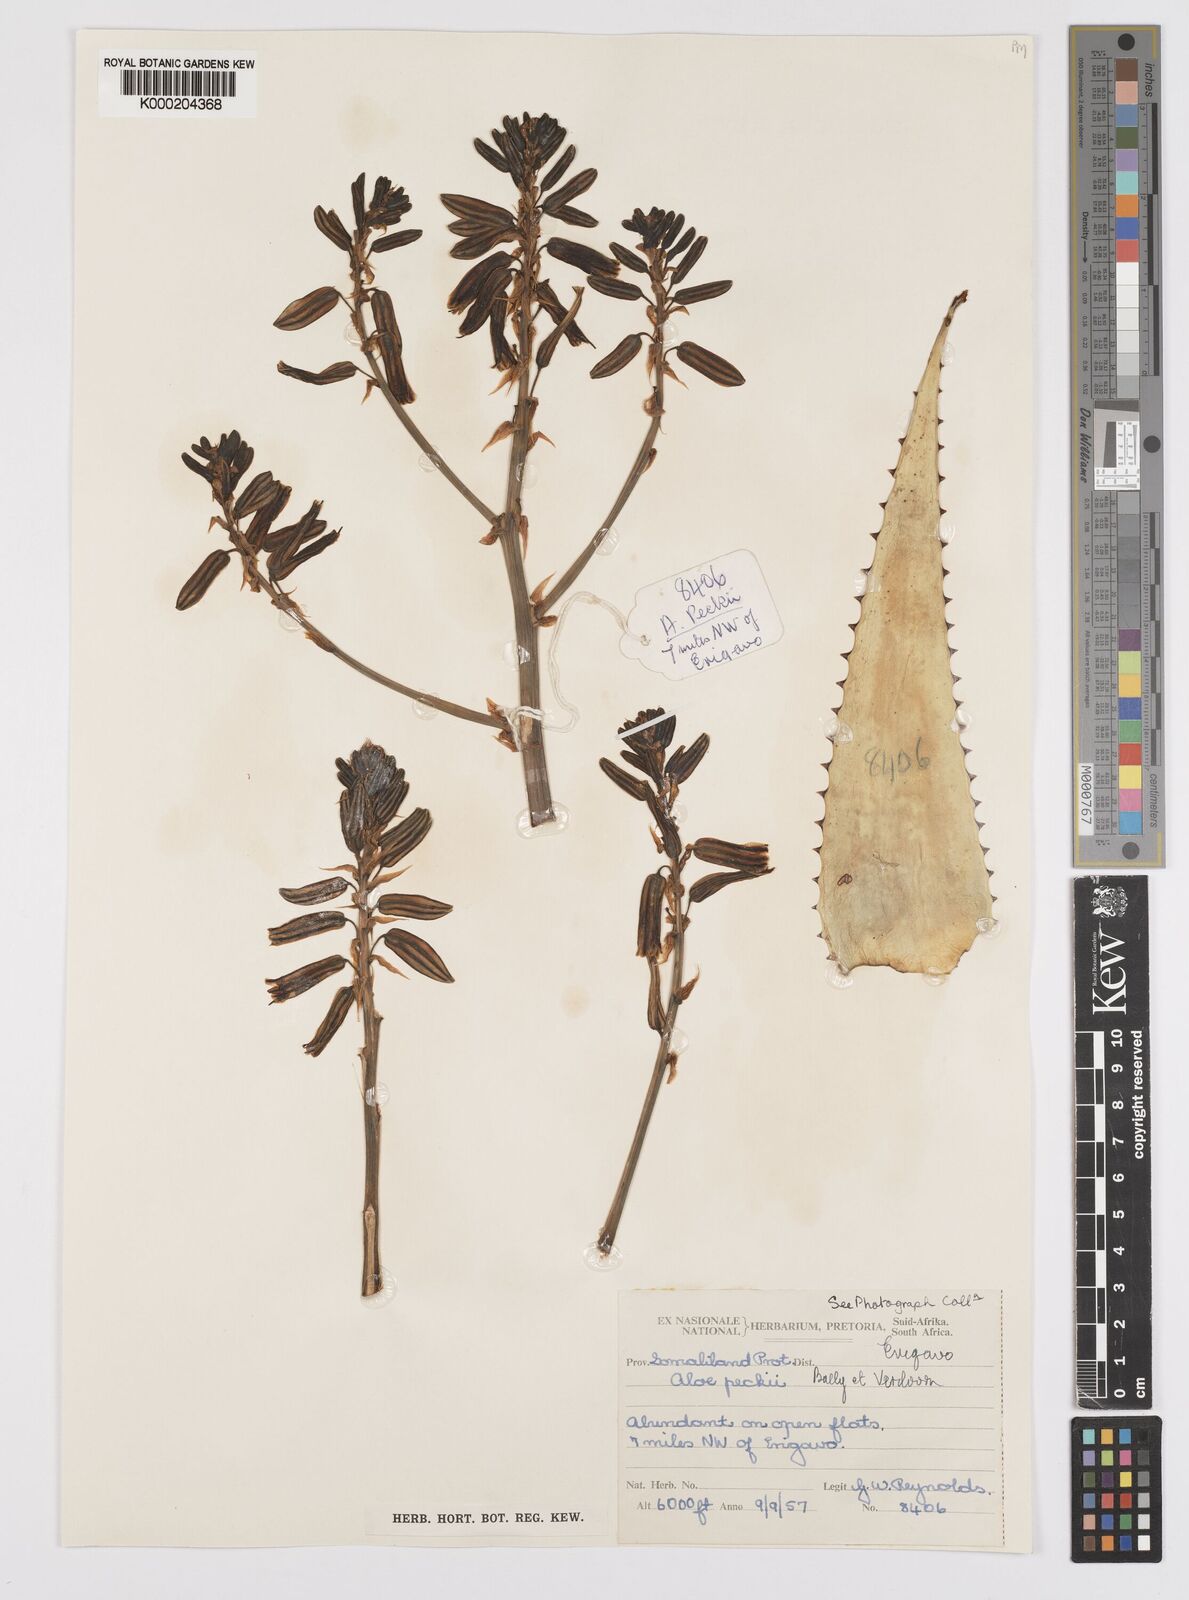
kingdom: Plantae
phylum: Tracheophyta
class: Liliopsida
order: Asparagales
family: Asphodelaceae
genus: Aloe
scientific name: Aloe peckii
